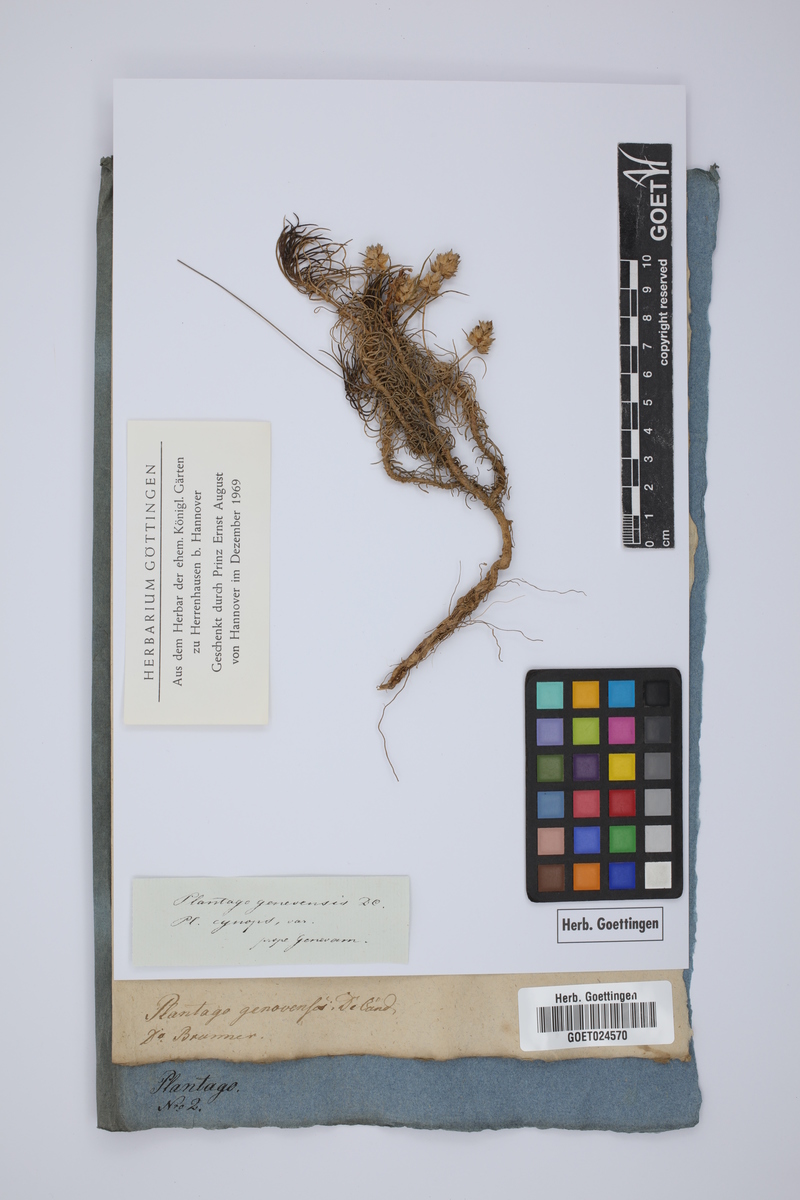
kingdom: Plantae
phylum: Tracheophyta
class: Magnoliopsida
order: Lamiales
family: Plantaginaceae
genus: Plantago
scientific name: Plantago sempervirens
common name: Shrubby plantain
